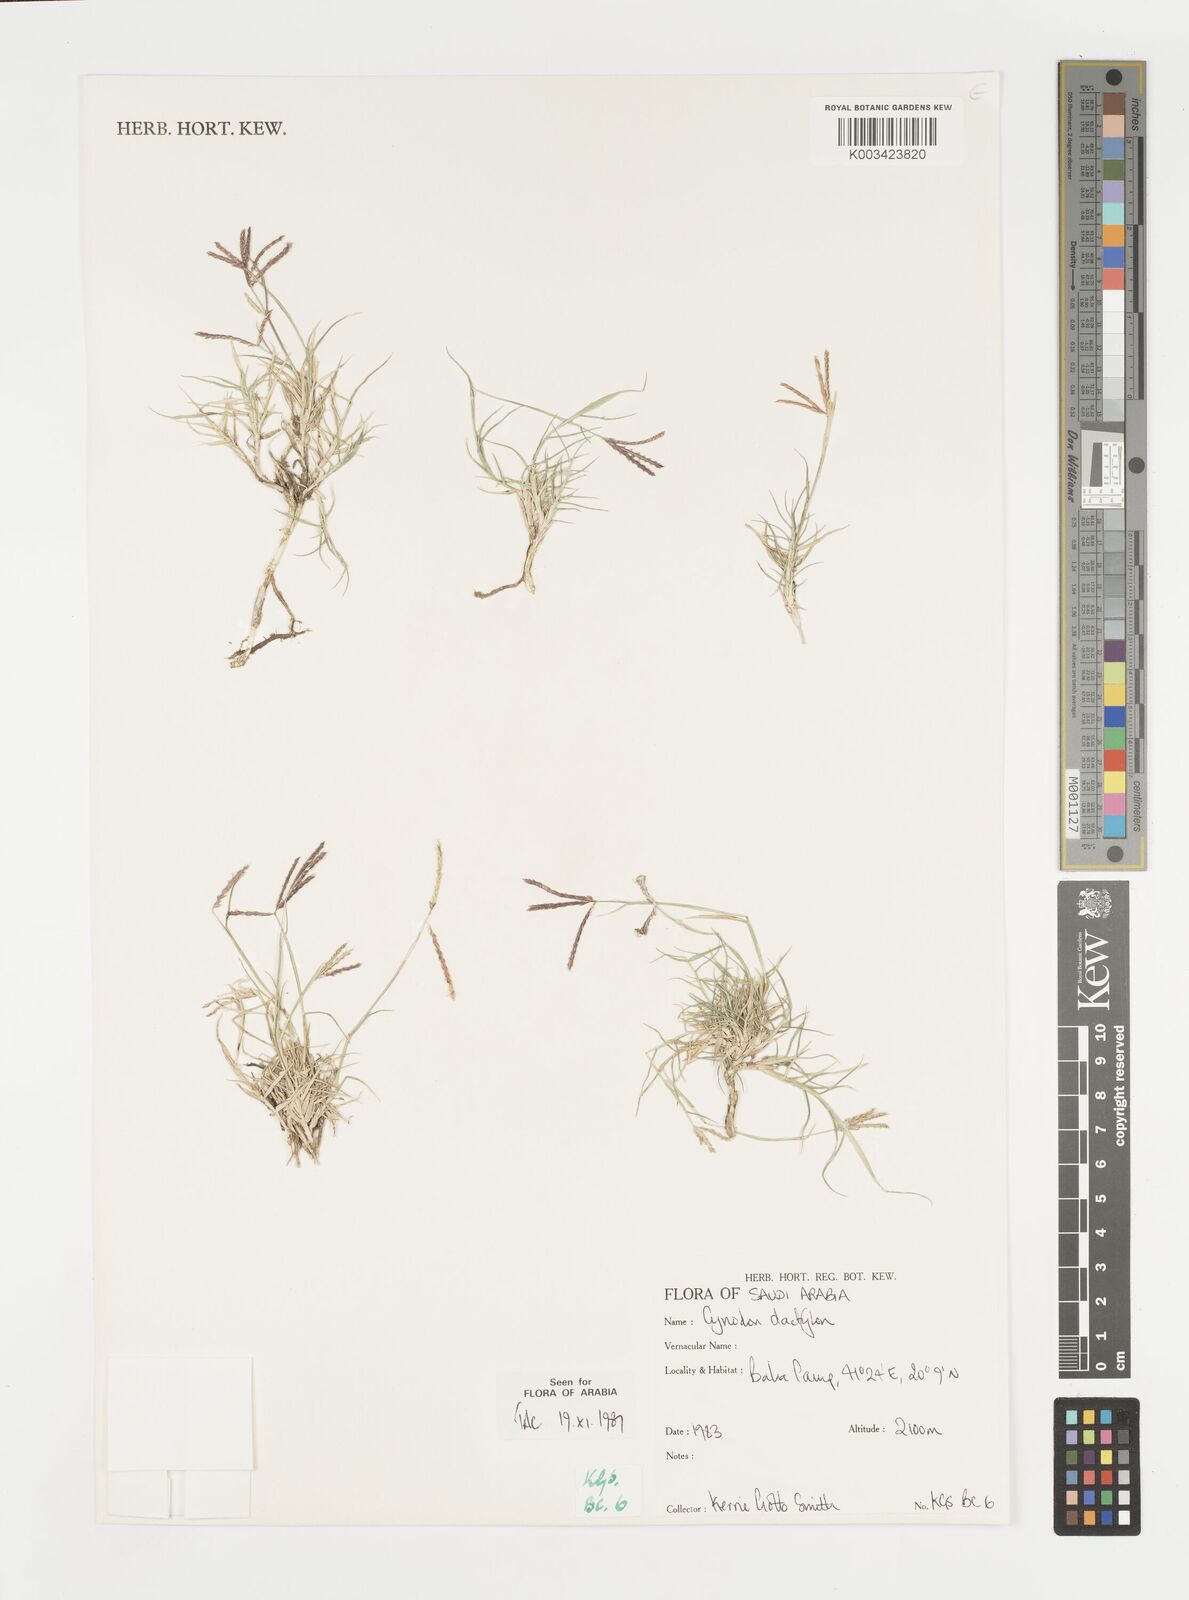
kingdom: Plantae
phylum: Tracheophyta
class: Liliopsida
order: Poales
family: Poaceae
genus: Cynodon
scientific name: Cynodon dactylon
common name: Bermuda grass
